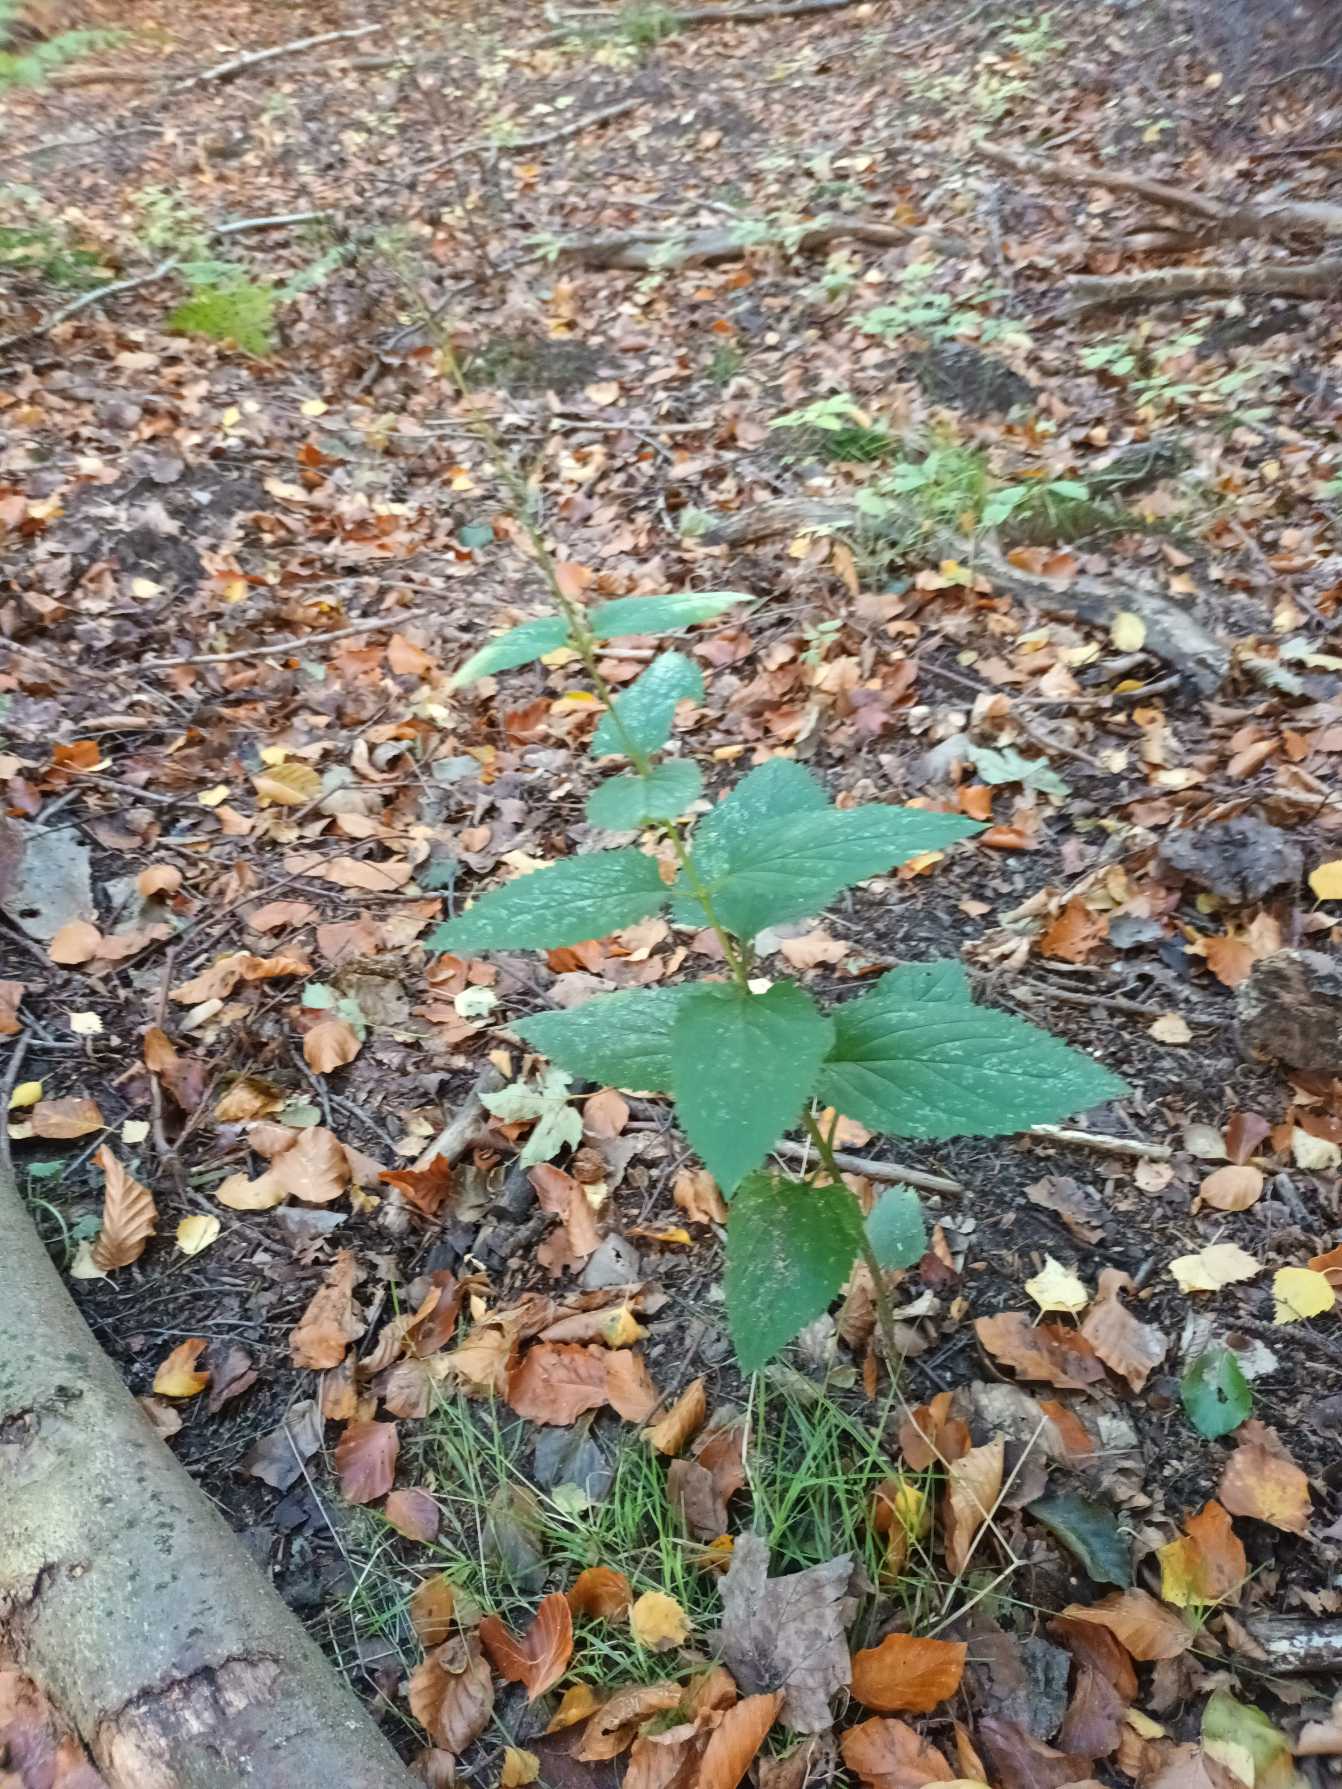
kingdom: Plantae
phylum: Tracheophyta
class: Magnoliopsida
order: Lamiales
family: Scrophulariaceae
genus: Scrophularia
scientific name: Scrophularia nodosa
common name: Knoldet brunrod
